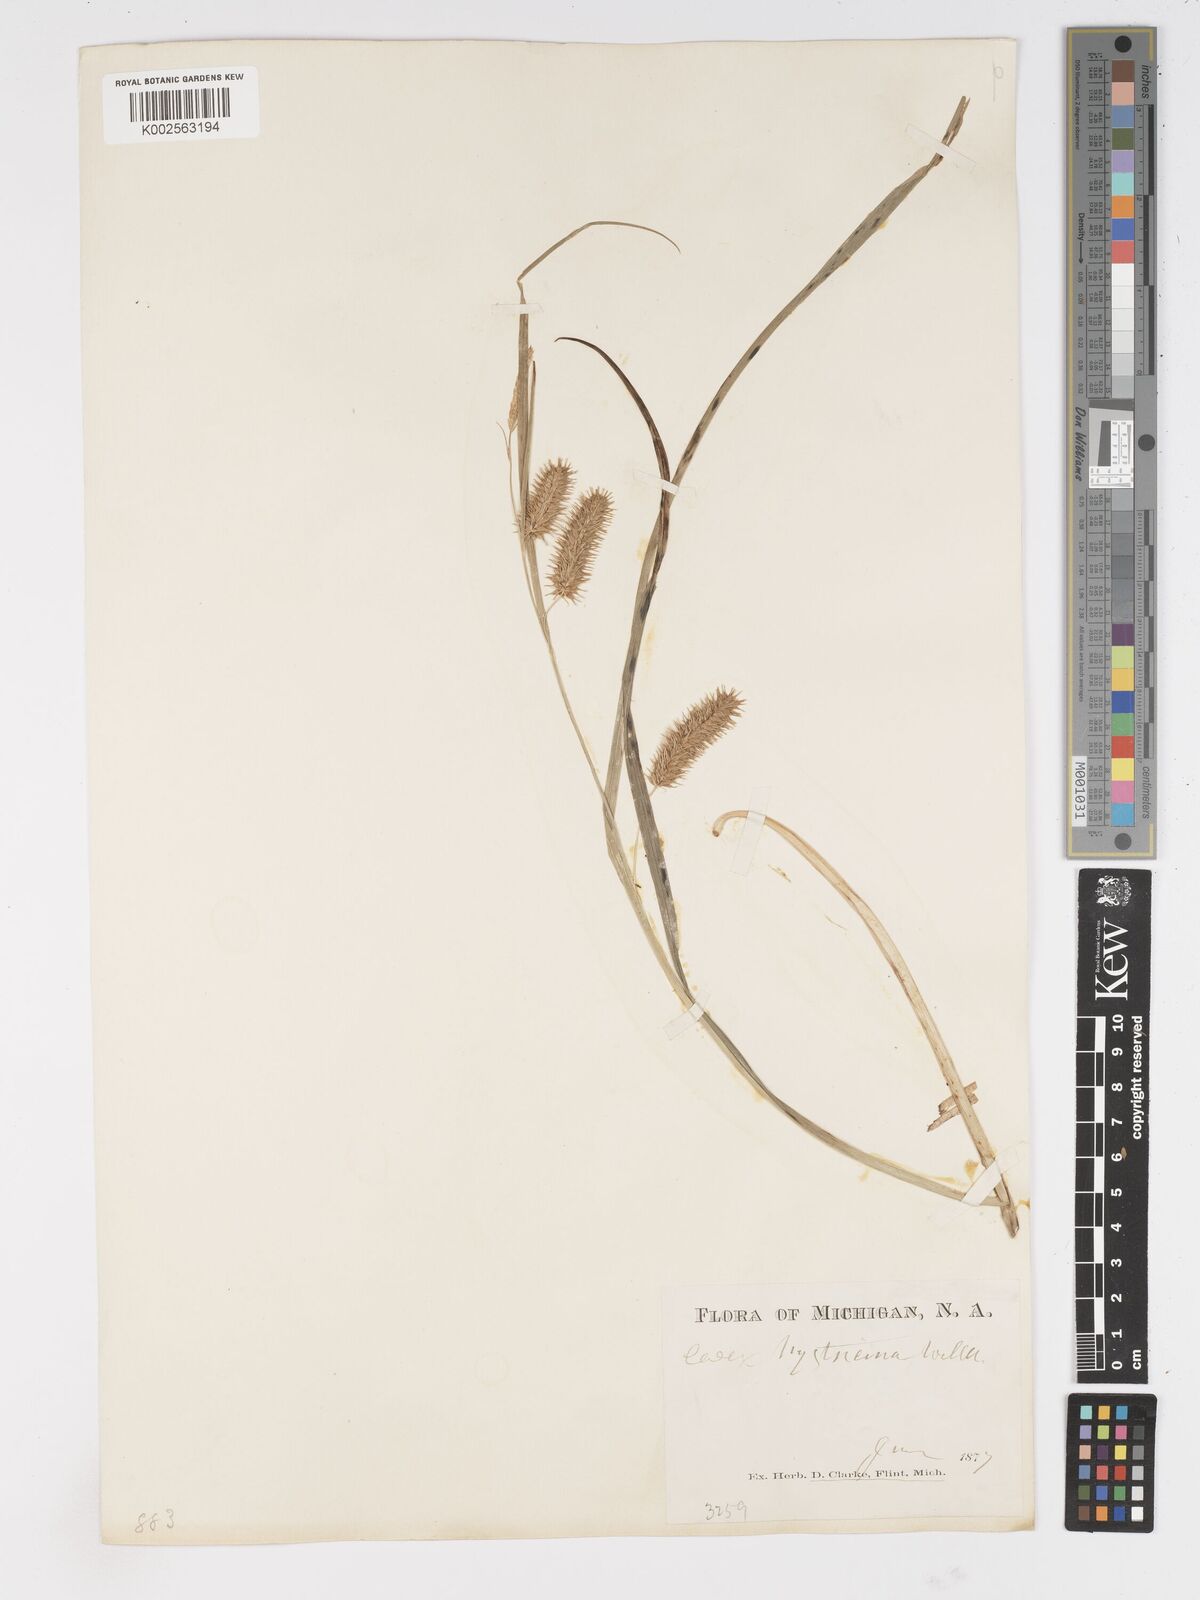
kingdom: Plantae
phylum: Tracheophyta
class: Liliopsida
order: Poales
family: Cyperaceae
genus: Carex
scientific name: Carex hystericina
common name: Bottlebrush sedge
